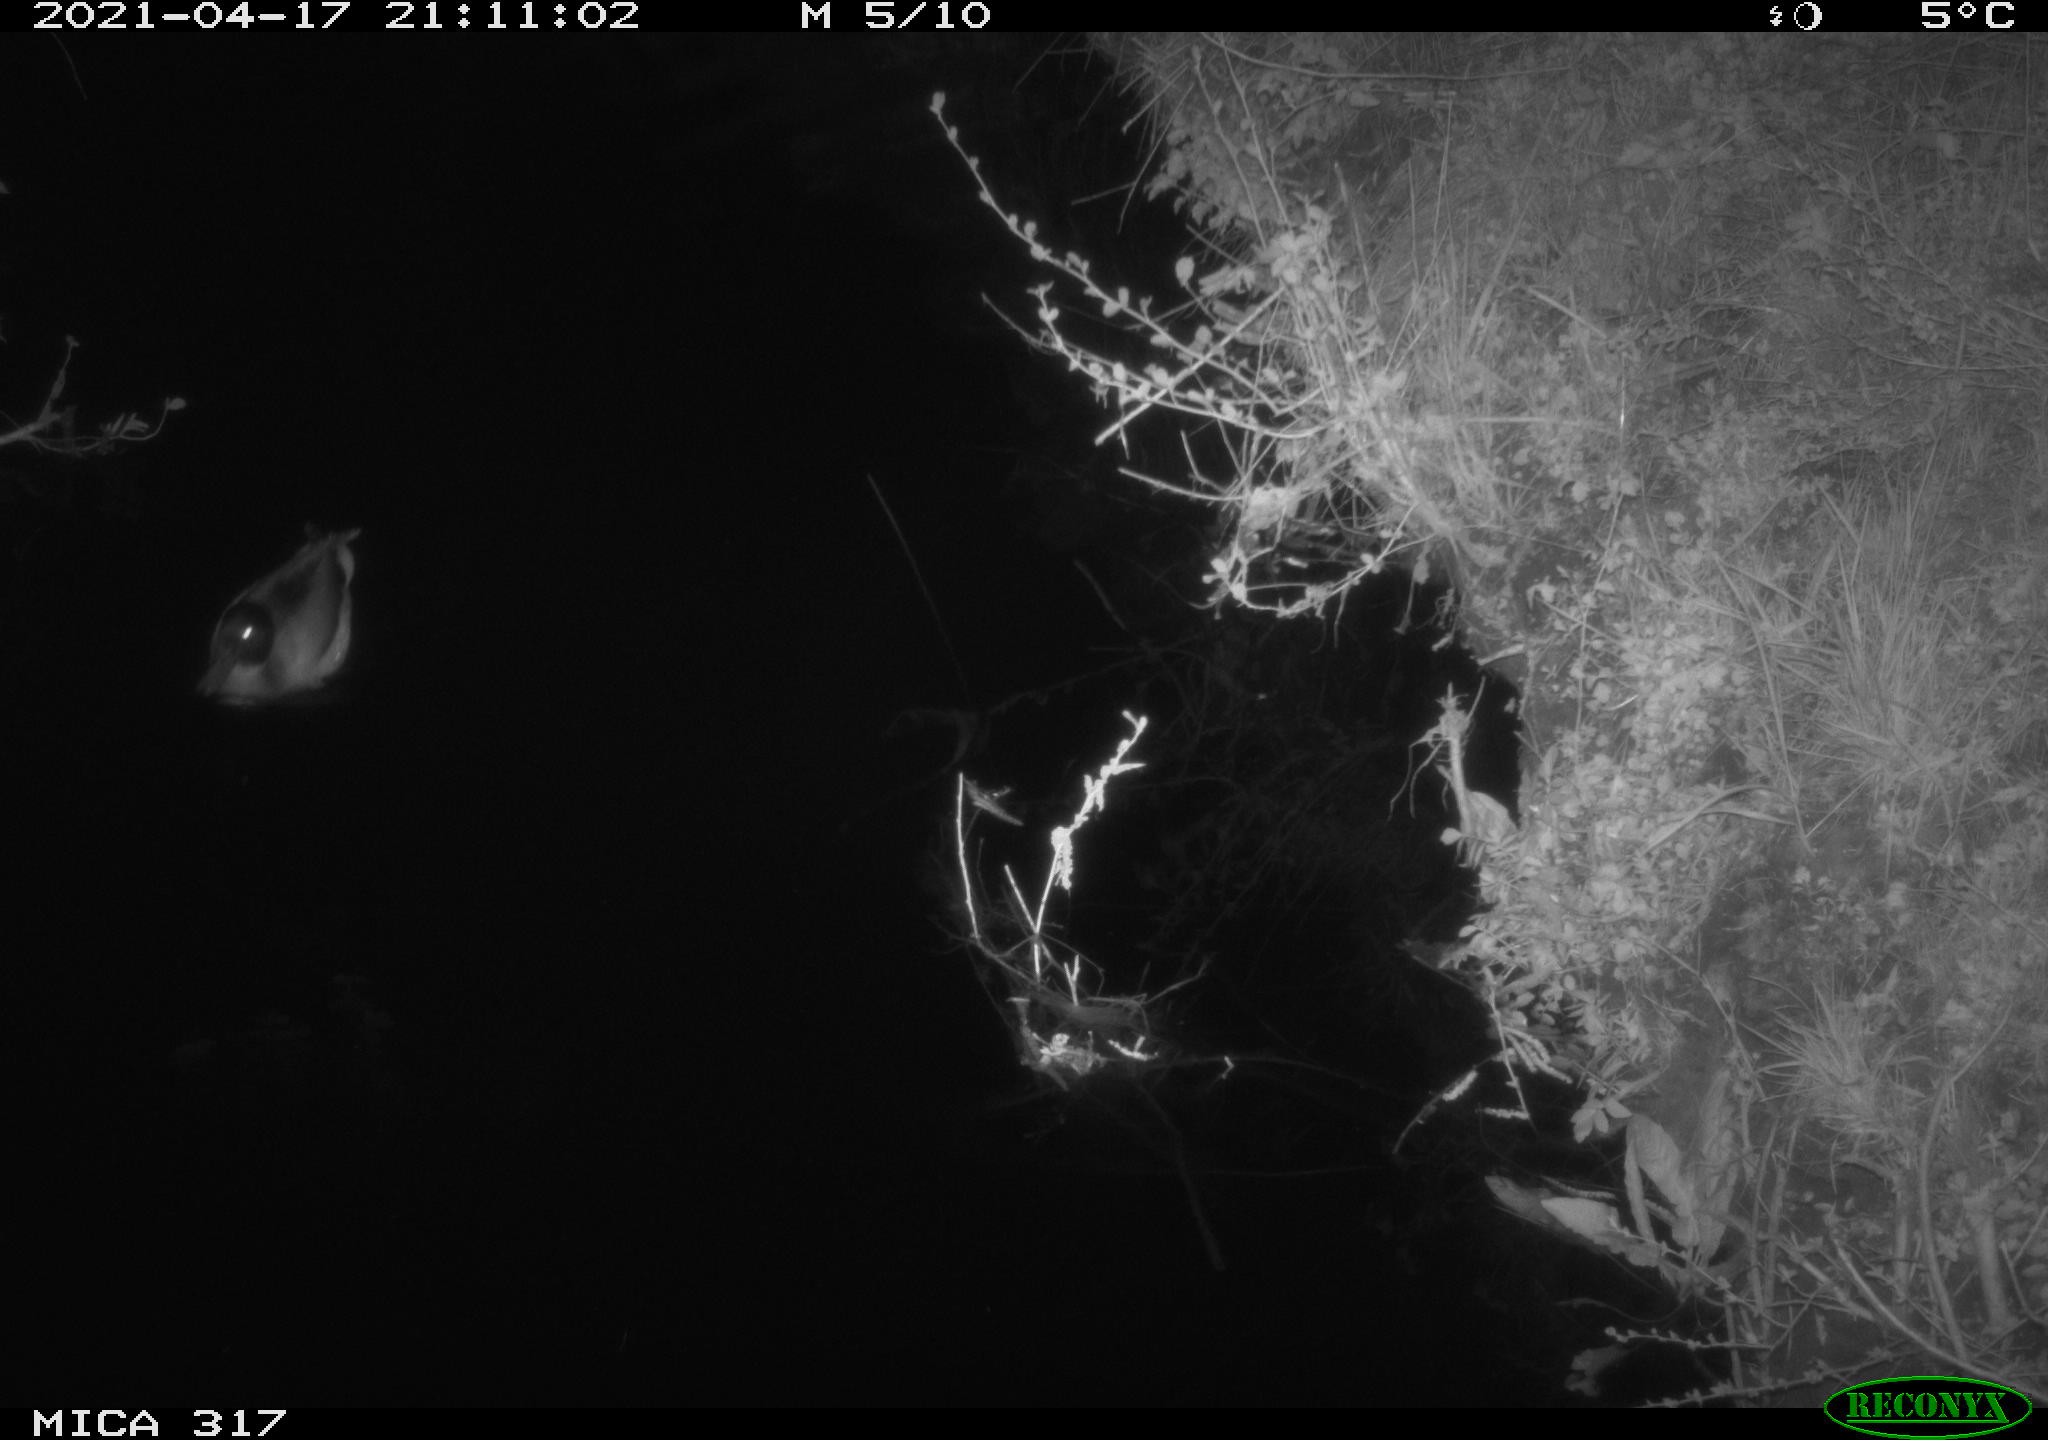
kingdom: Animalia
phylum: Chordata
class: Aves
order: Anseriformes
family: Anatidae
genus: Anas
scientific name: Anas platyrhynchos
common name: Mallard
